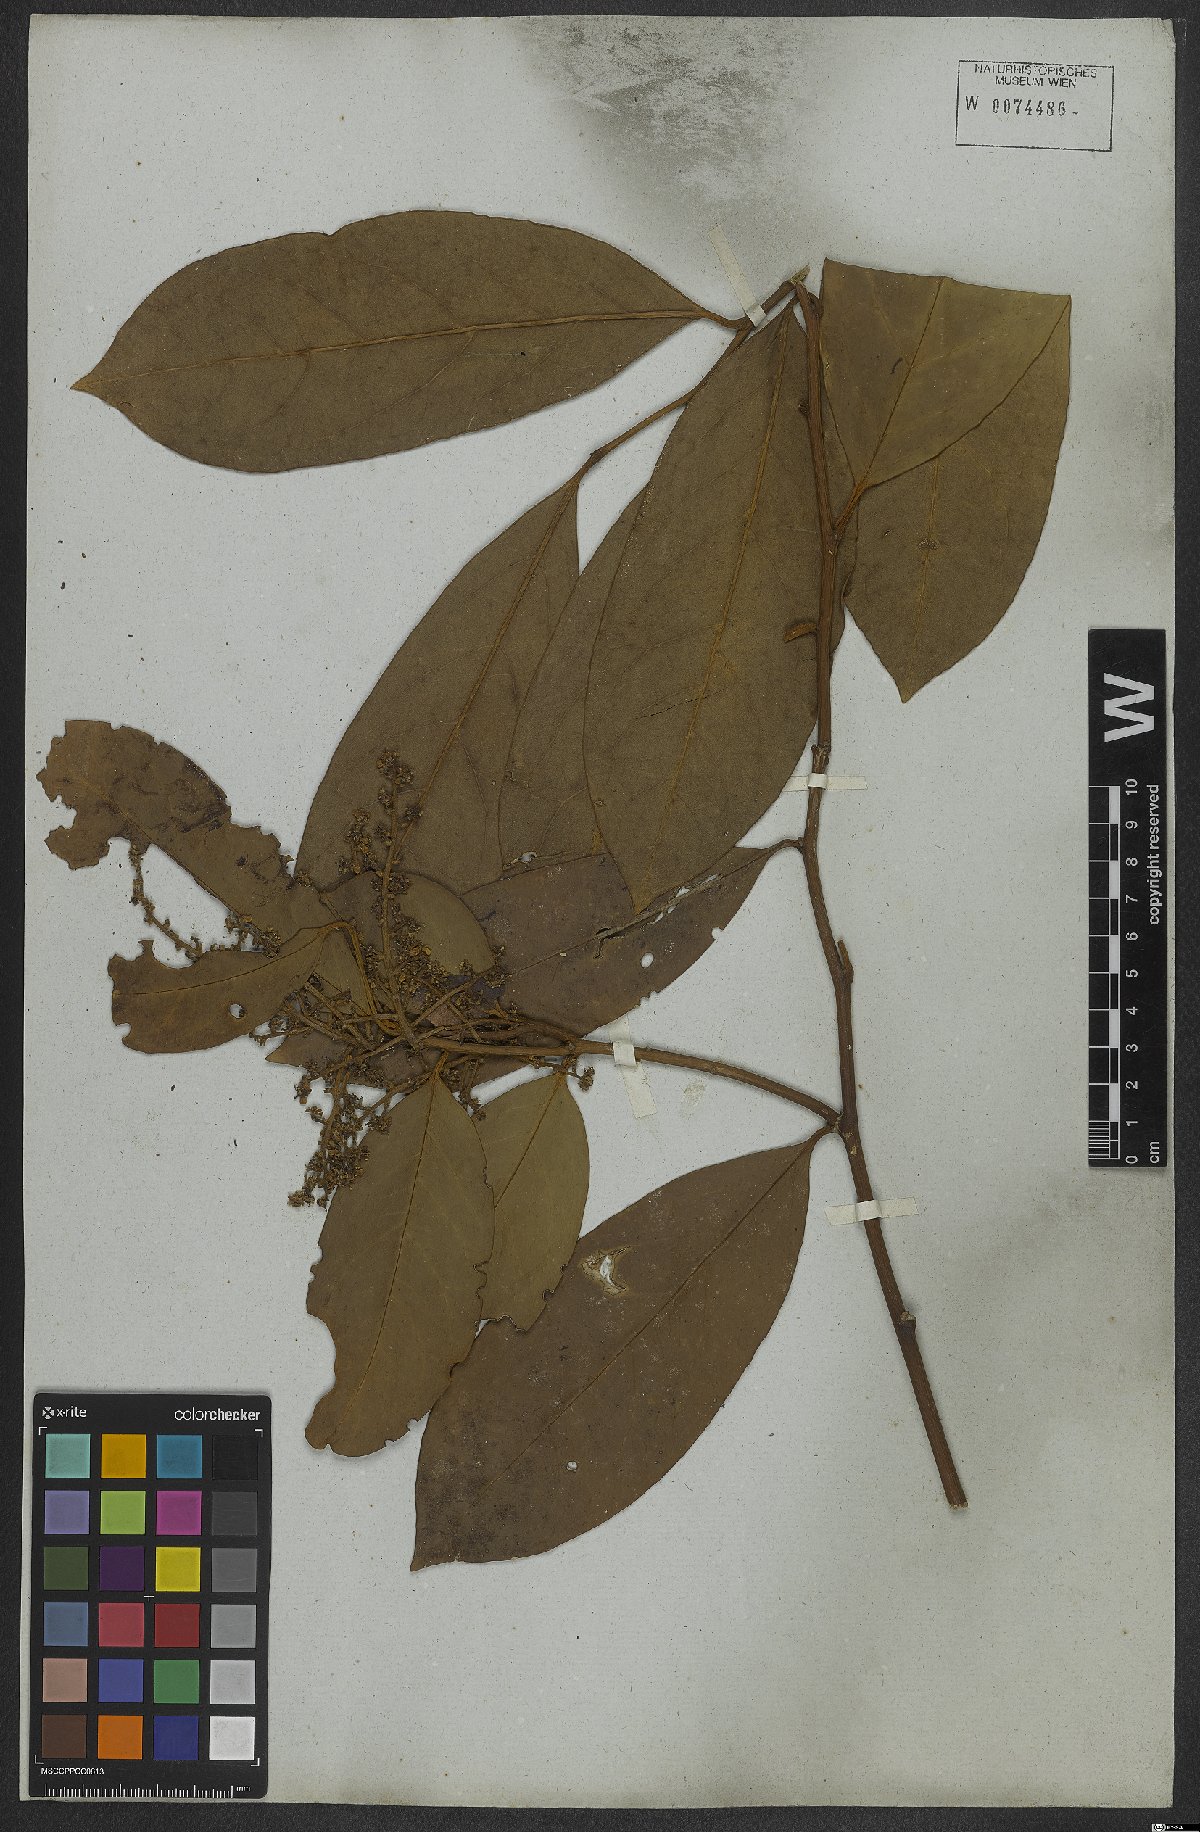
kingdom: Plantae
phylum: Tracheophyta
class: Magnoliopsida
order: Cardiopteridales
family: Cardiopteridaceae
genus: Citronella
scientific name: Citronella paniculata
